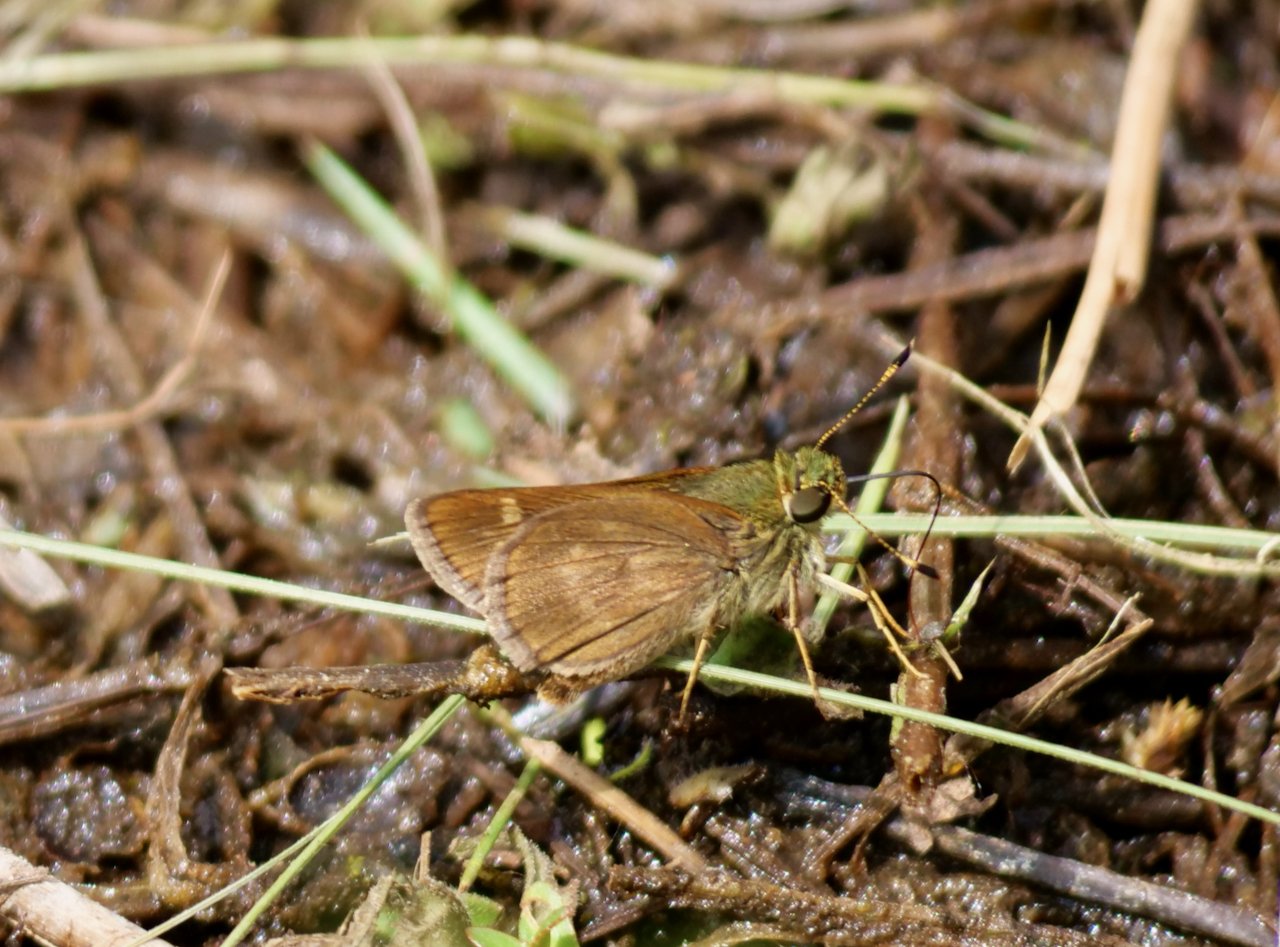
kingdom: Animalia
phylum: Arthropoda
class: Insecta
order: Lepidoptera
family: Hesperiidae
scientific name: Hesperiidae
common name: Skippers
